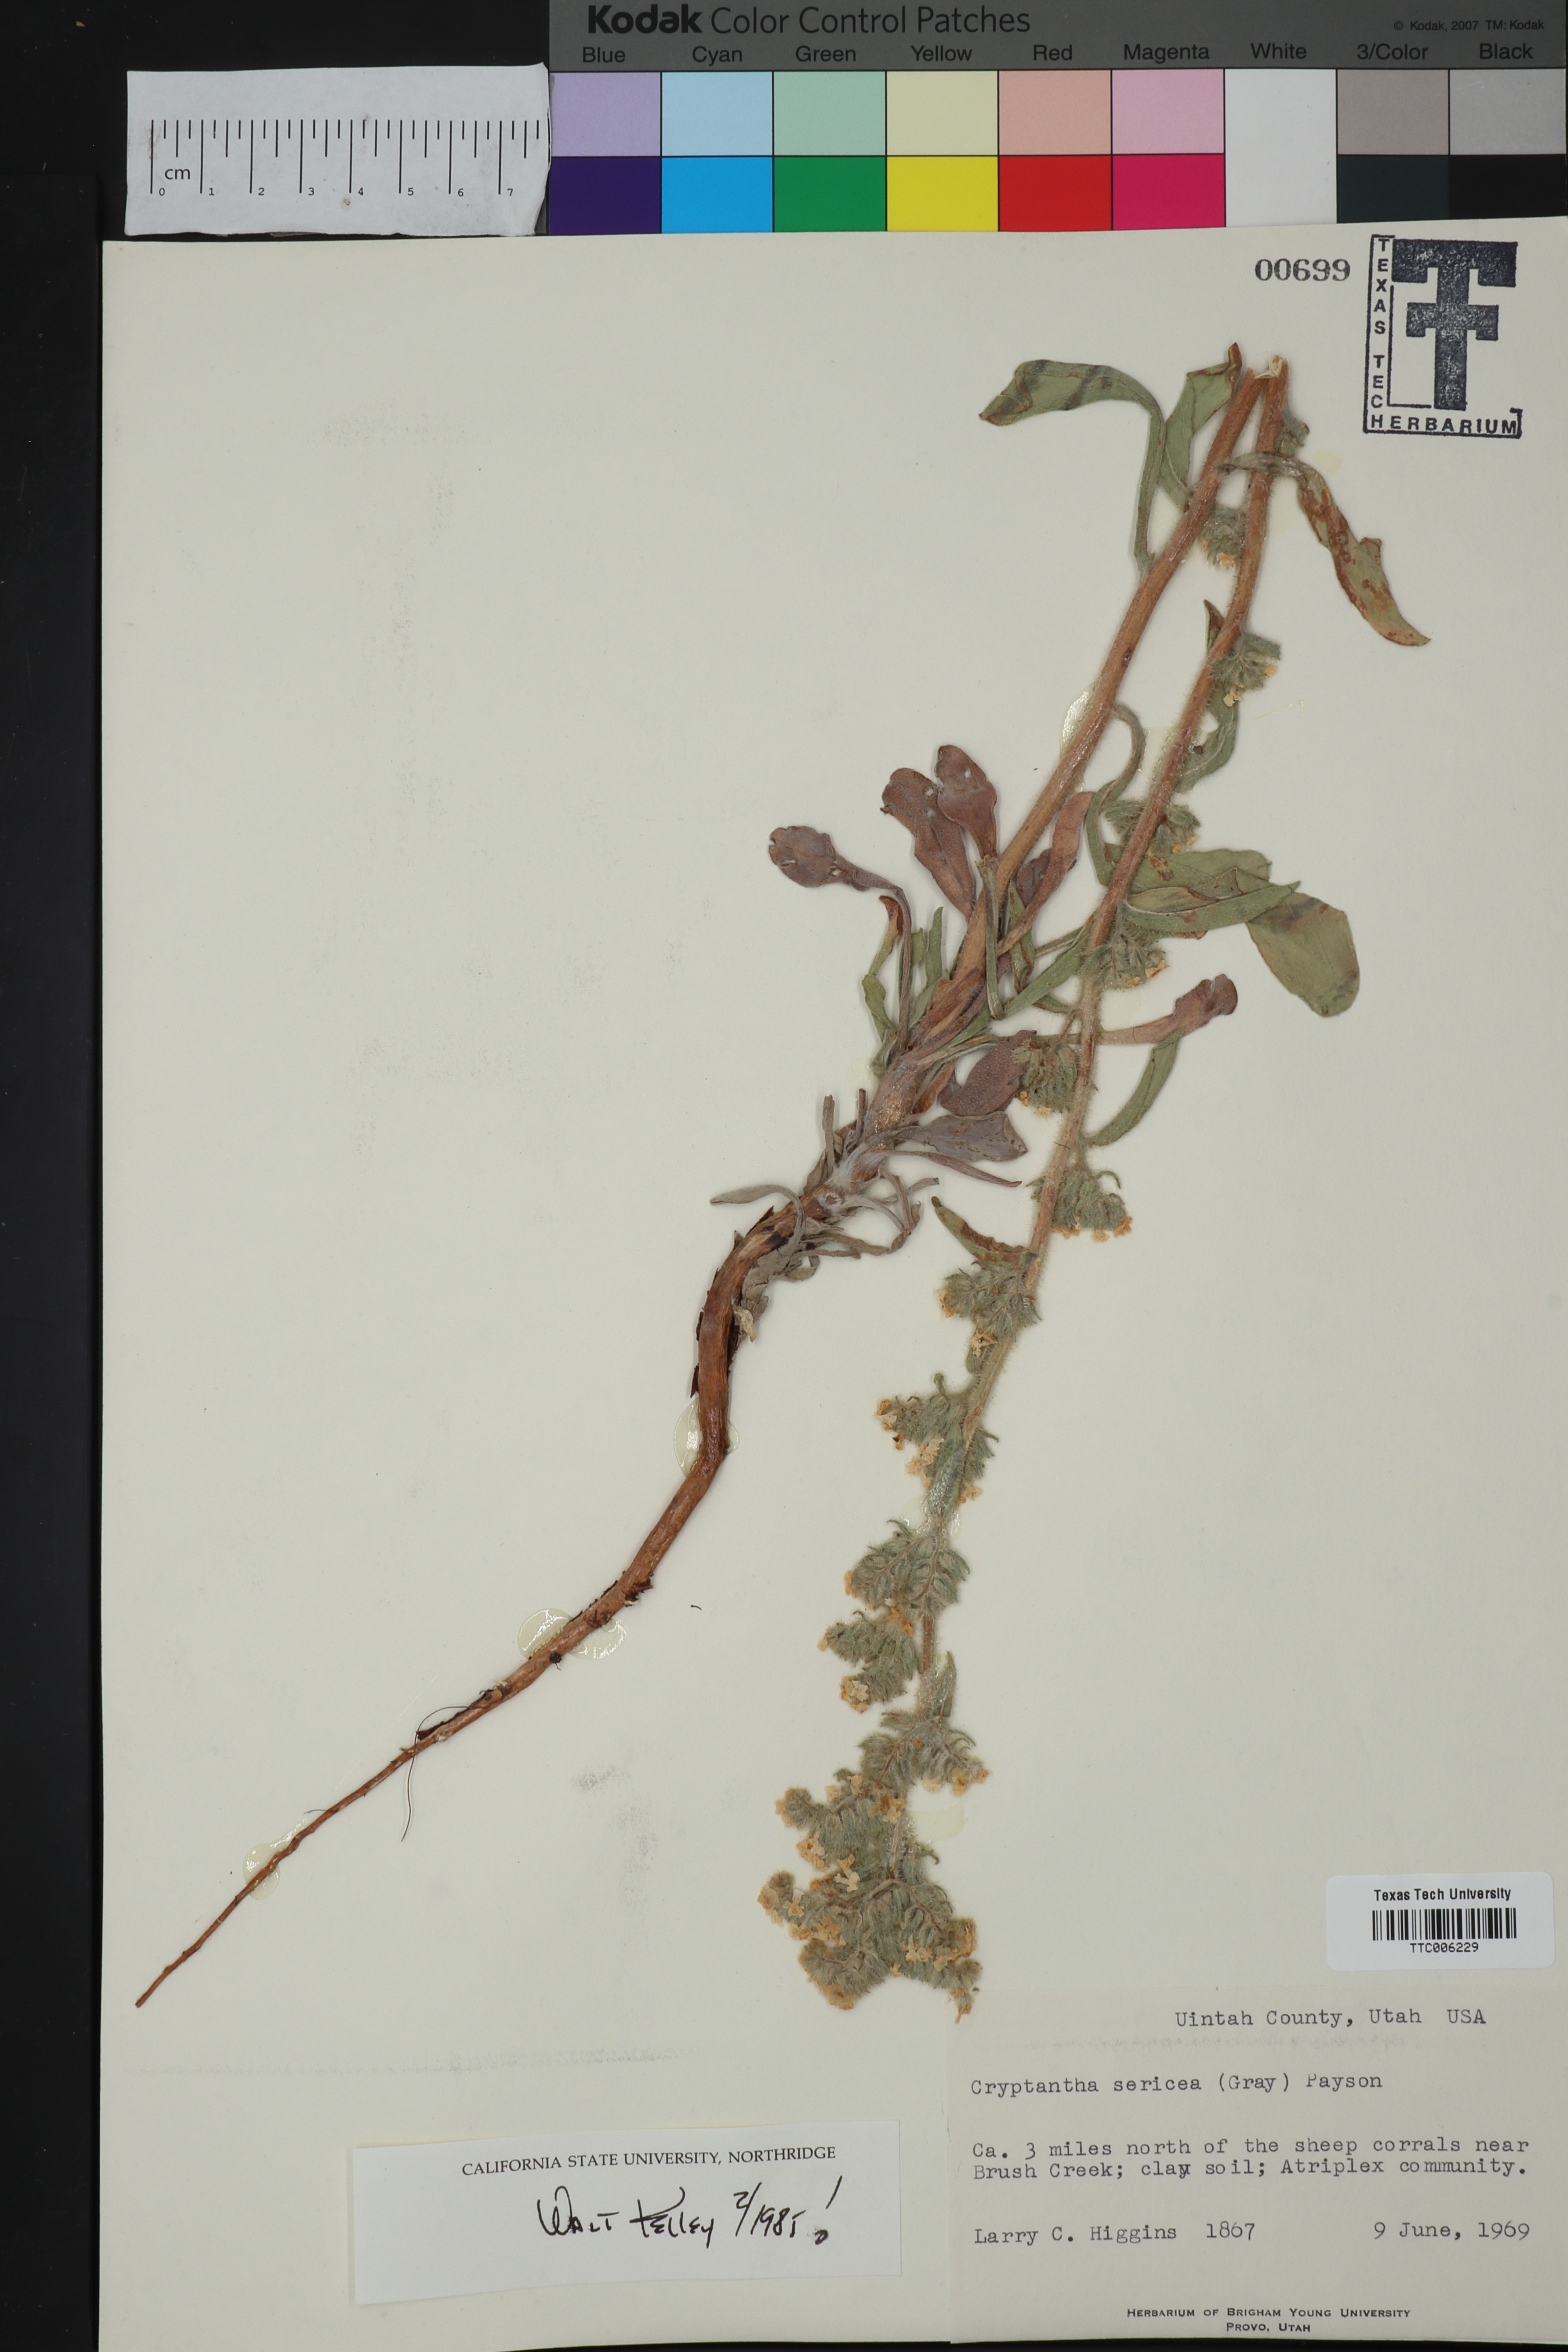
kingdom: Plantae
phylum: Tracheophyta
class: Magnoliopsida
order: Boraginales
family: Boraginaceae
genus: Oreocarya
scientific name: Oreocarya sericea
